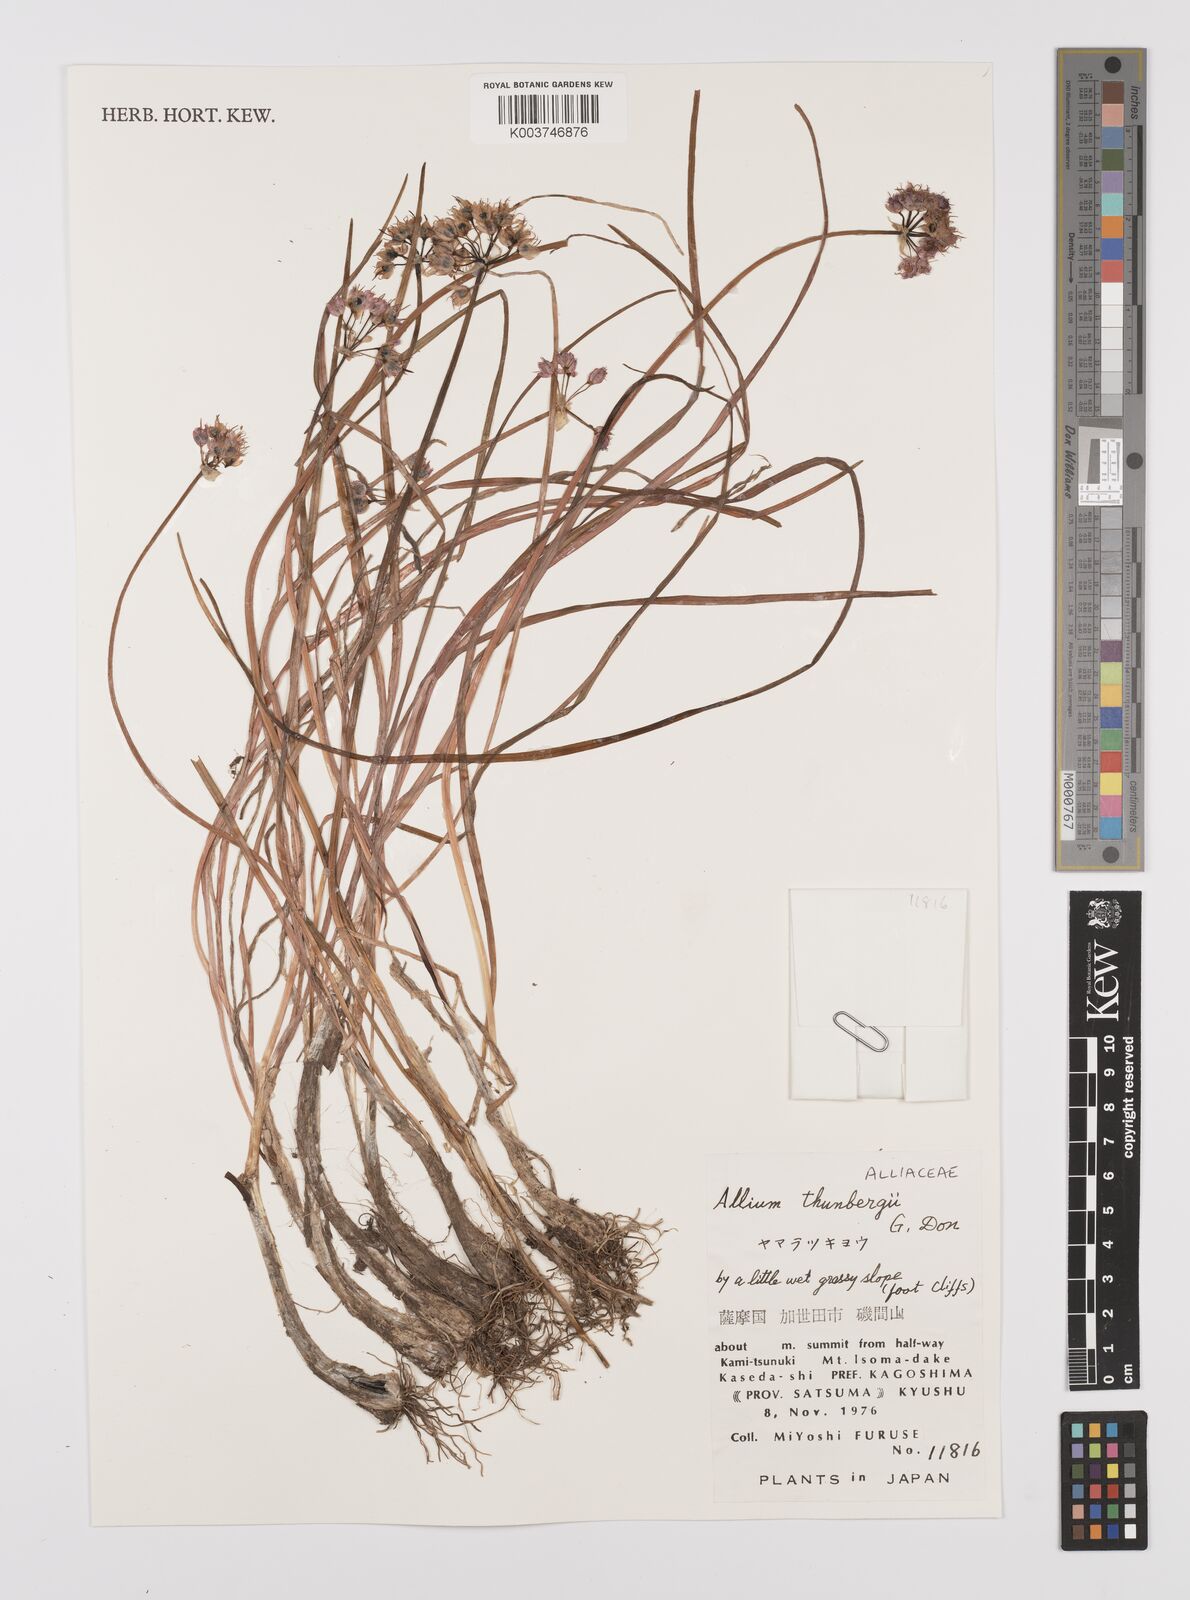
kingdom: Plantae
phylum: Tracheophyta
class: Liliopsida
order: Asparagales
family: Amaryllidaceae
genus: Allium
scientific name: Allium thunbergii
